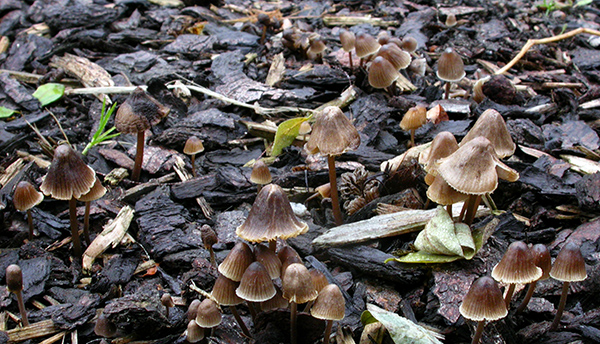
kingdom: Fungi
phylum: Basidiomycota
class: Agaricomycetes
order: Agaricales
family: Mycenaceae
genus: Mycena
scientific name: Mycena leptocephala
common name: klor-huesvamp
